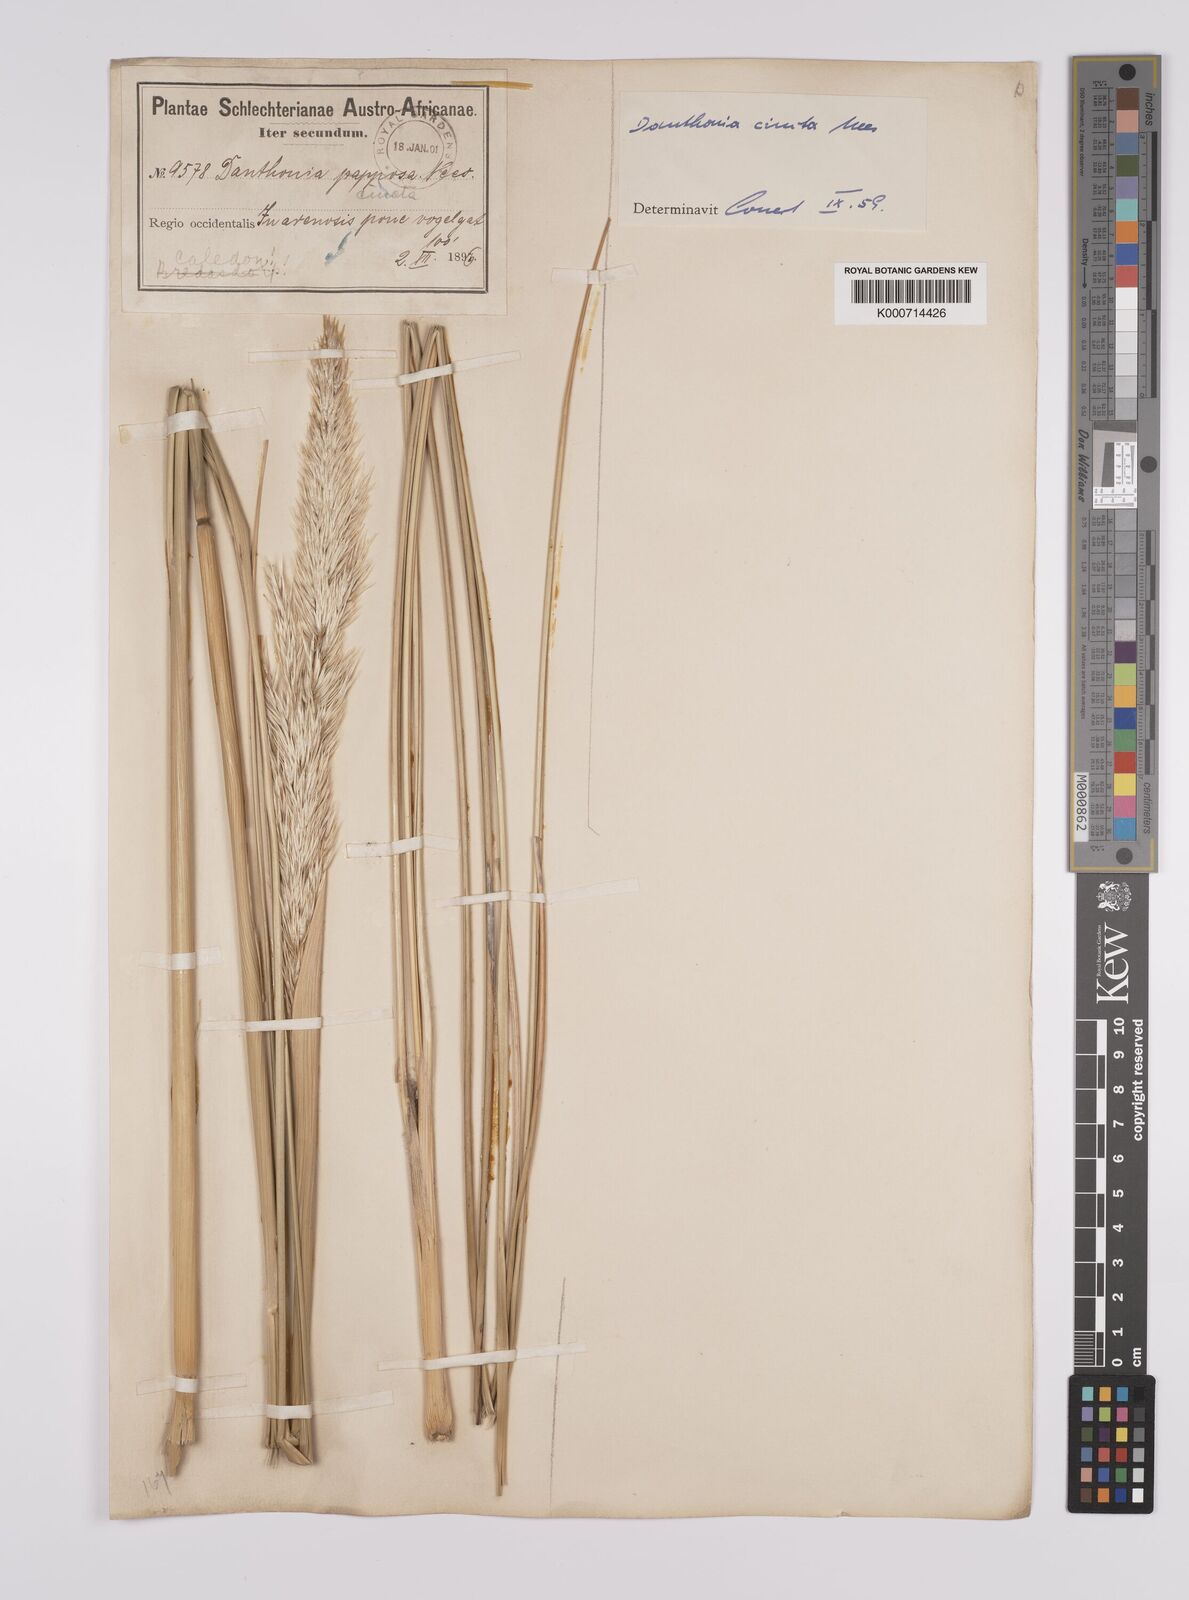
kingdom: Plantae
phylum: Tracheophyta
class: Liliopsida
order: Poales
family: Poaceae
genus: Rytidosperma
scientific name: Rytidosperma
